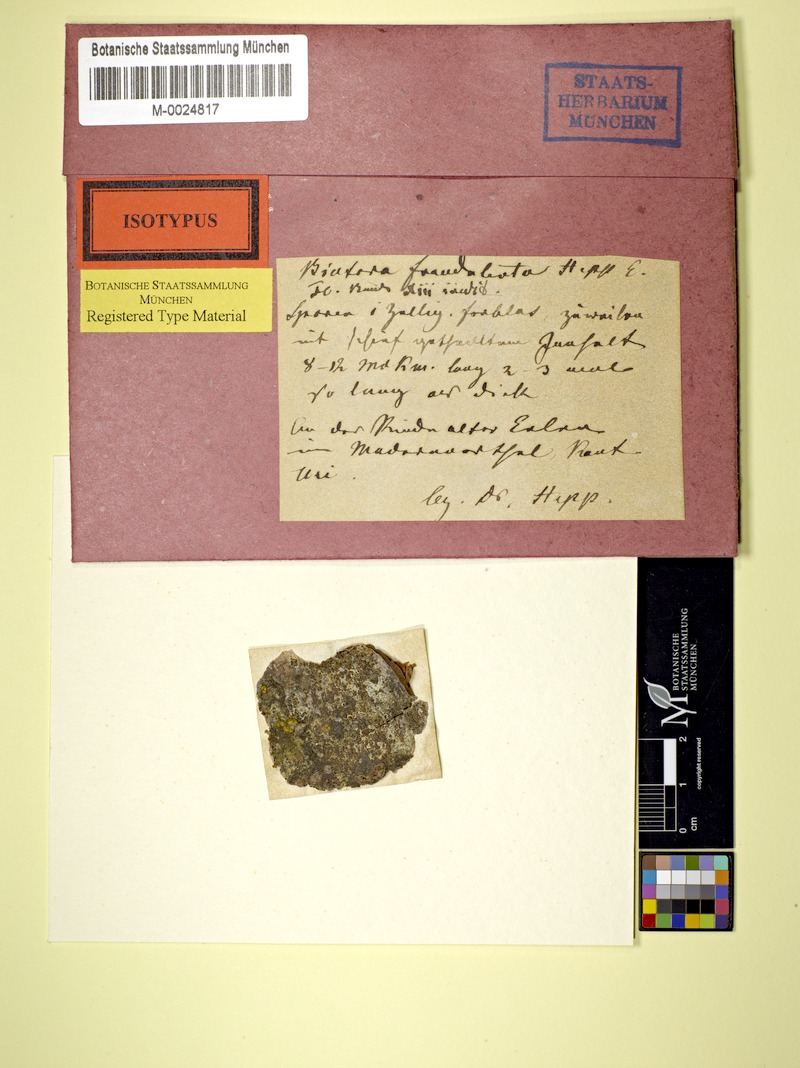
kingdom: Fungi
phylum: Ascomycota
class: Lecanoromycetes
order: Lecanorales
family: Ramalinaceae
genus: Biatora
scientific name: Biatora
